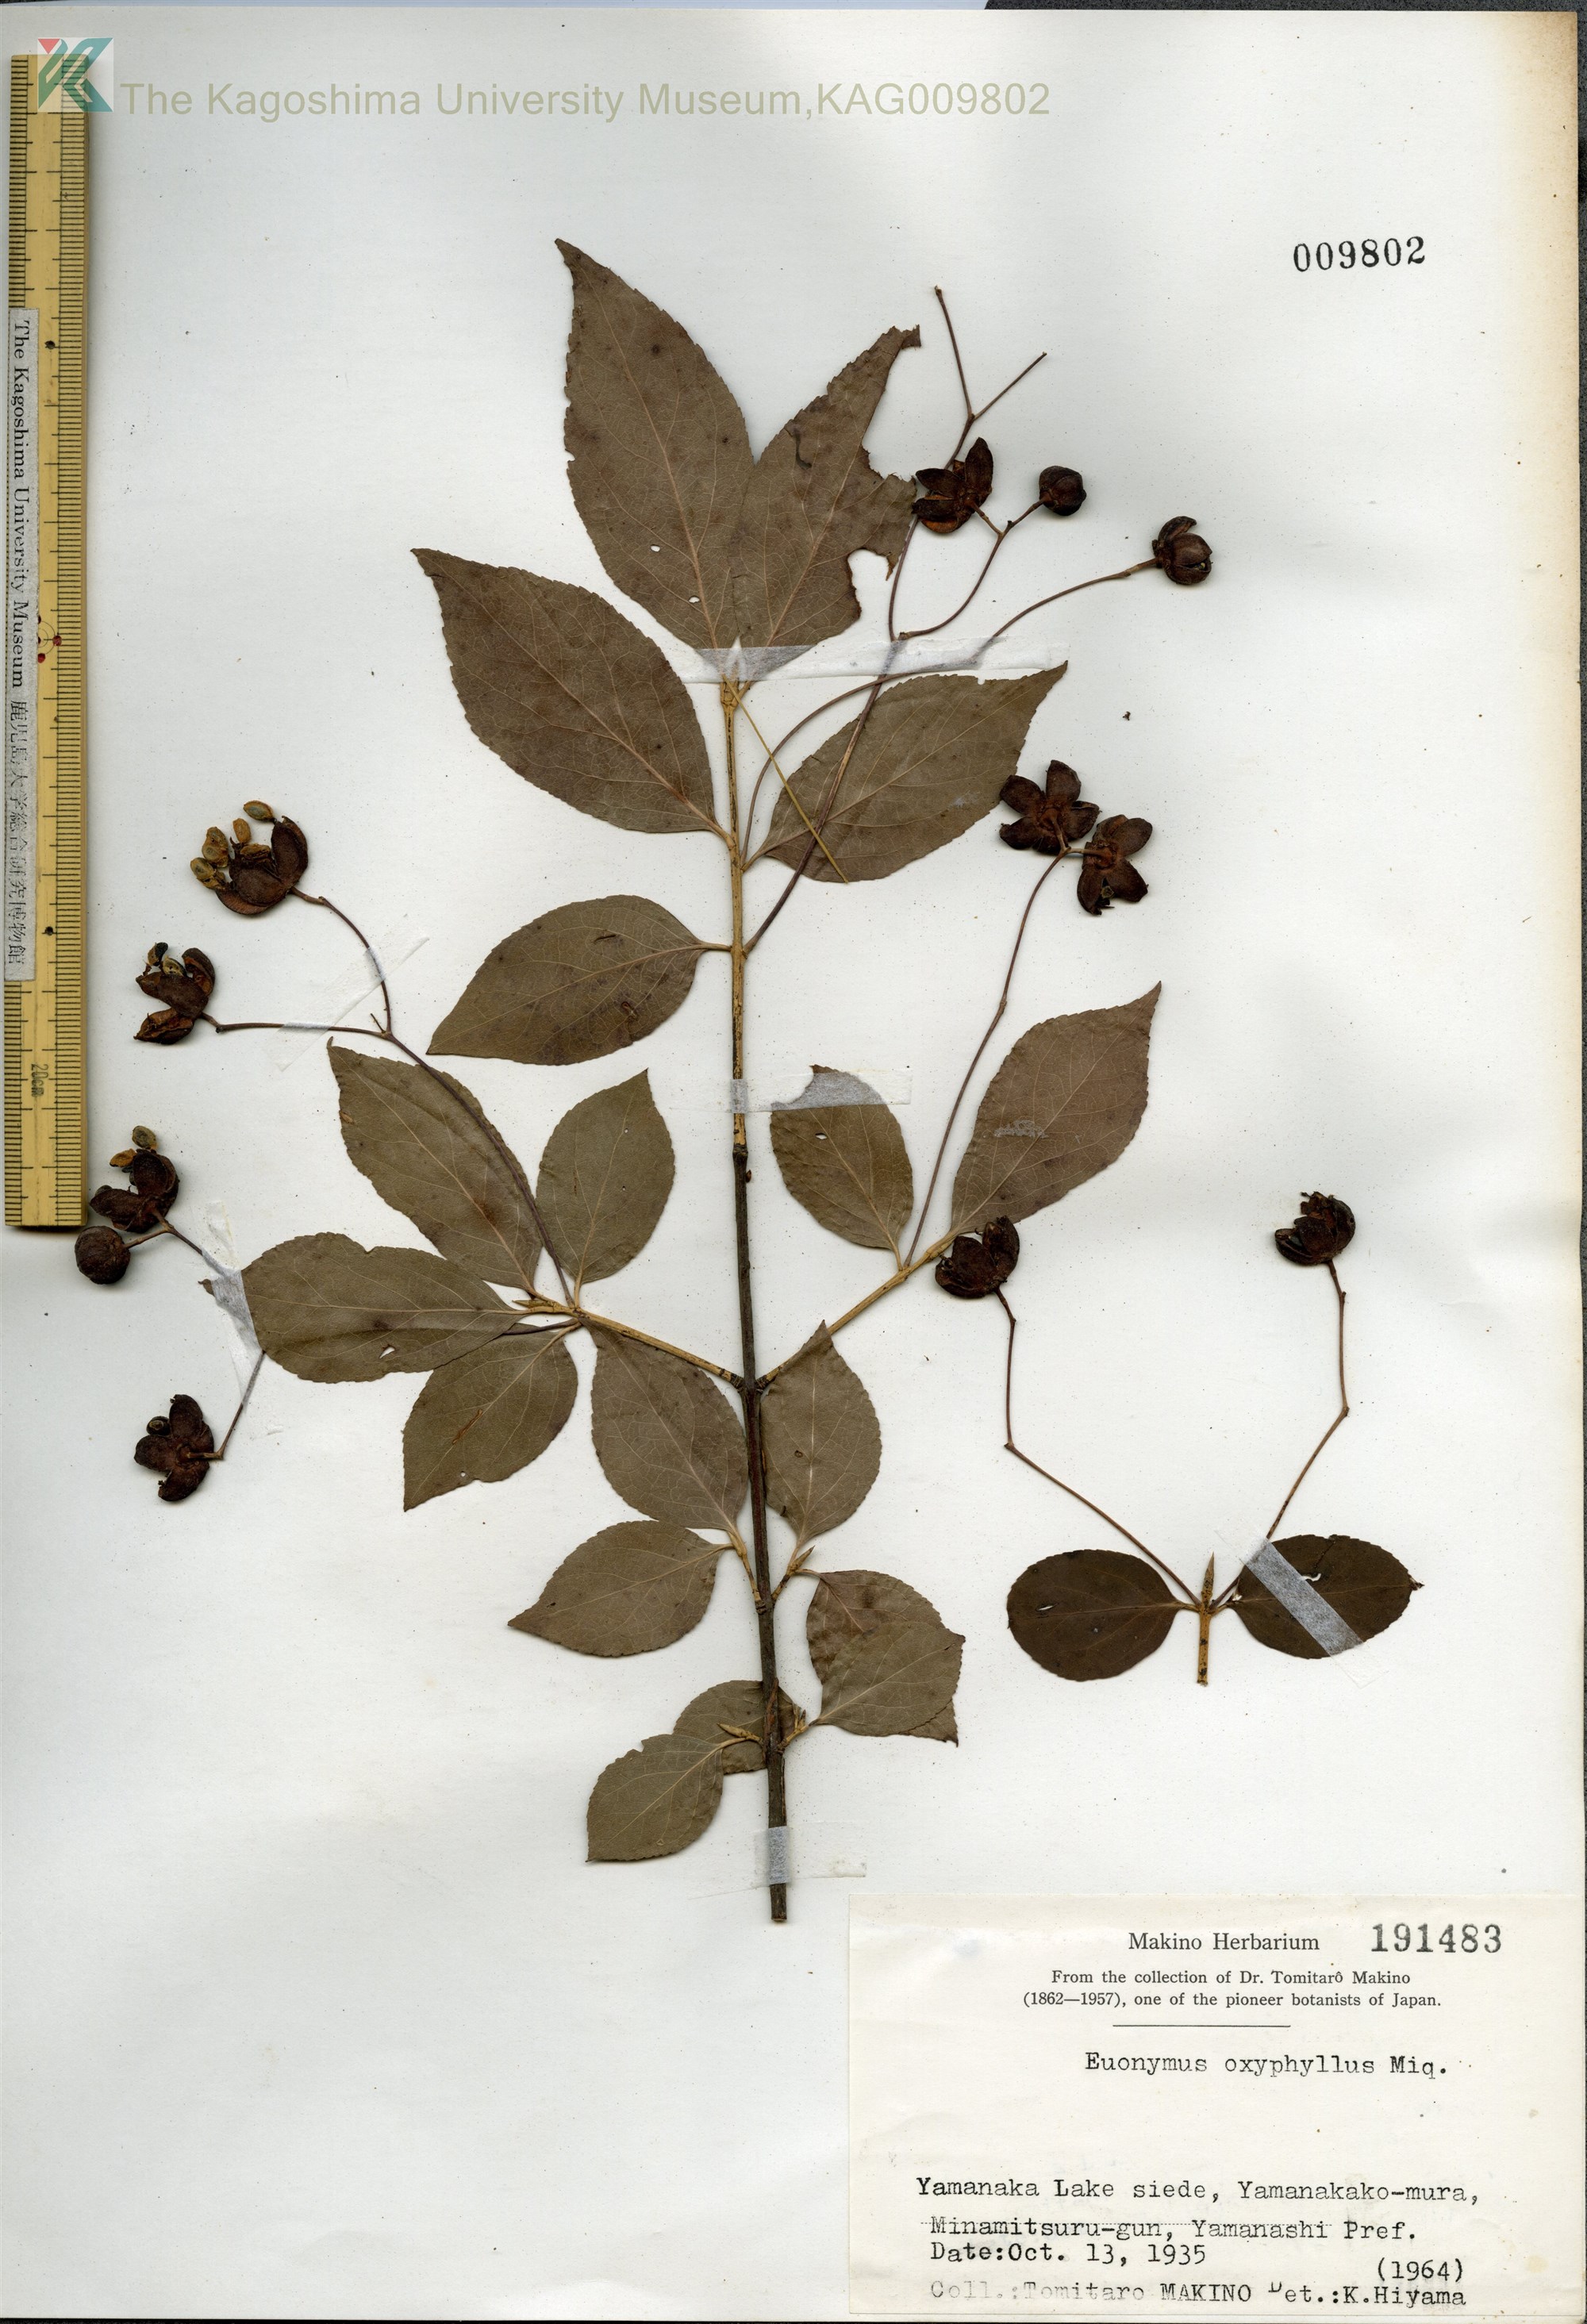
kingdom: Plantae
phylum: Tracheophyta
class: Magnoliopsida
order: Celastrales
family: Celastraceae
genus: Euonymus
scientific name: Euonymus oxyphyllus
